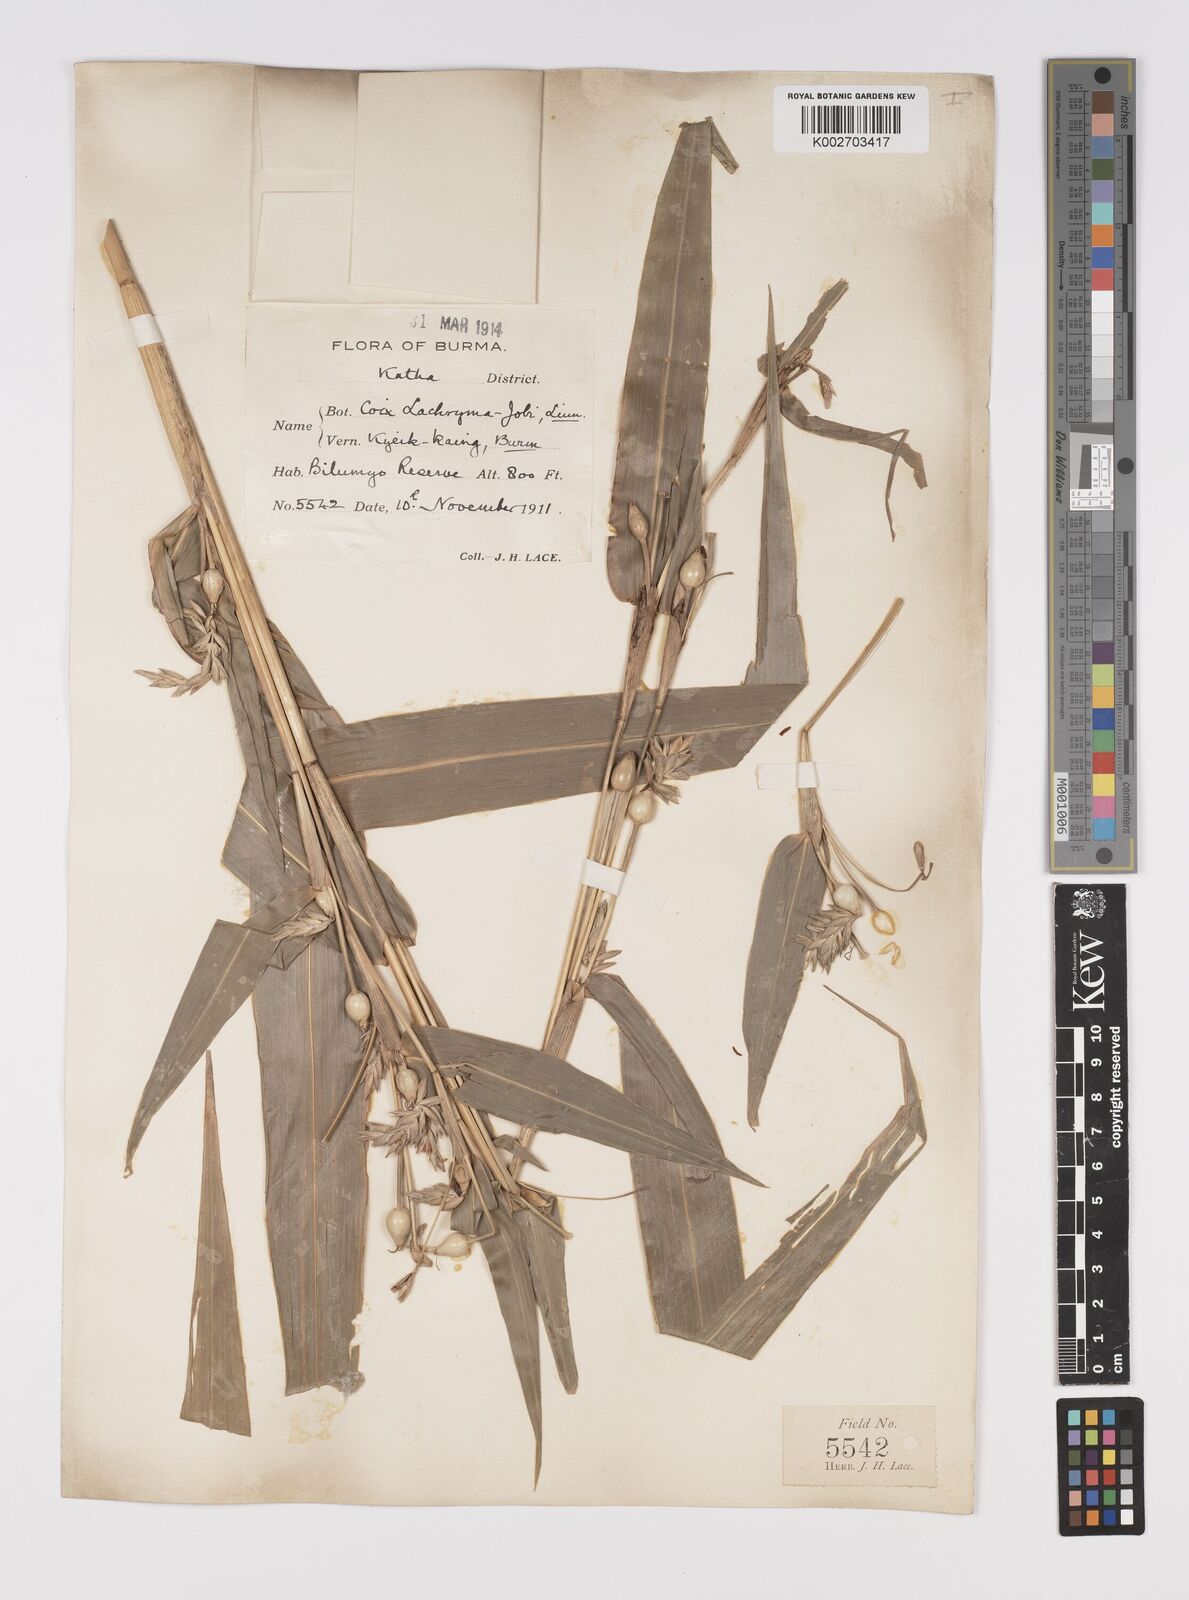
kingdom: Plantae
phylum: Tracheophyta
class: Liliopsida
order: Poales
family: Poaceae
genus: Coix
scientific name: Coix lacryma-jobi
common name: Job's tears
